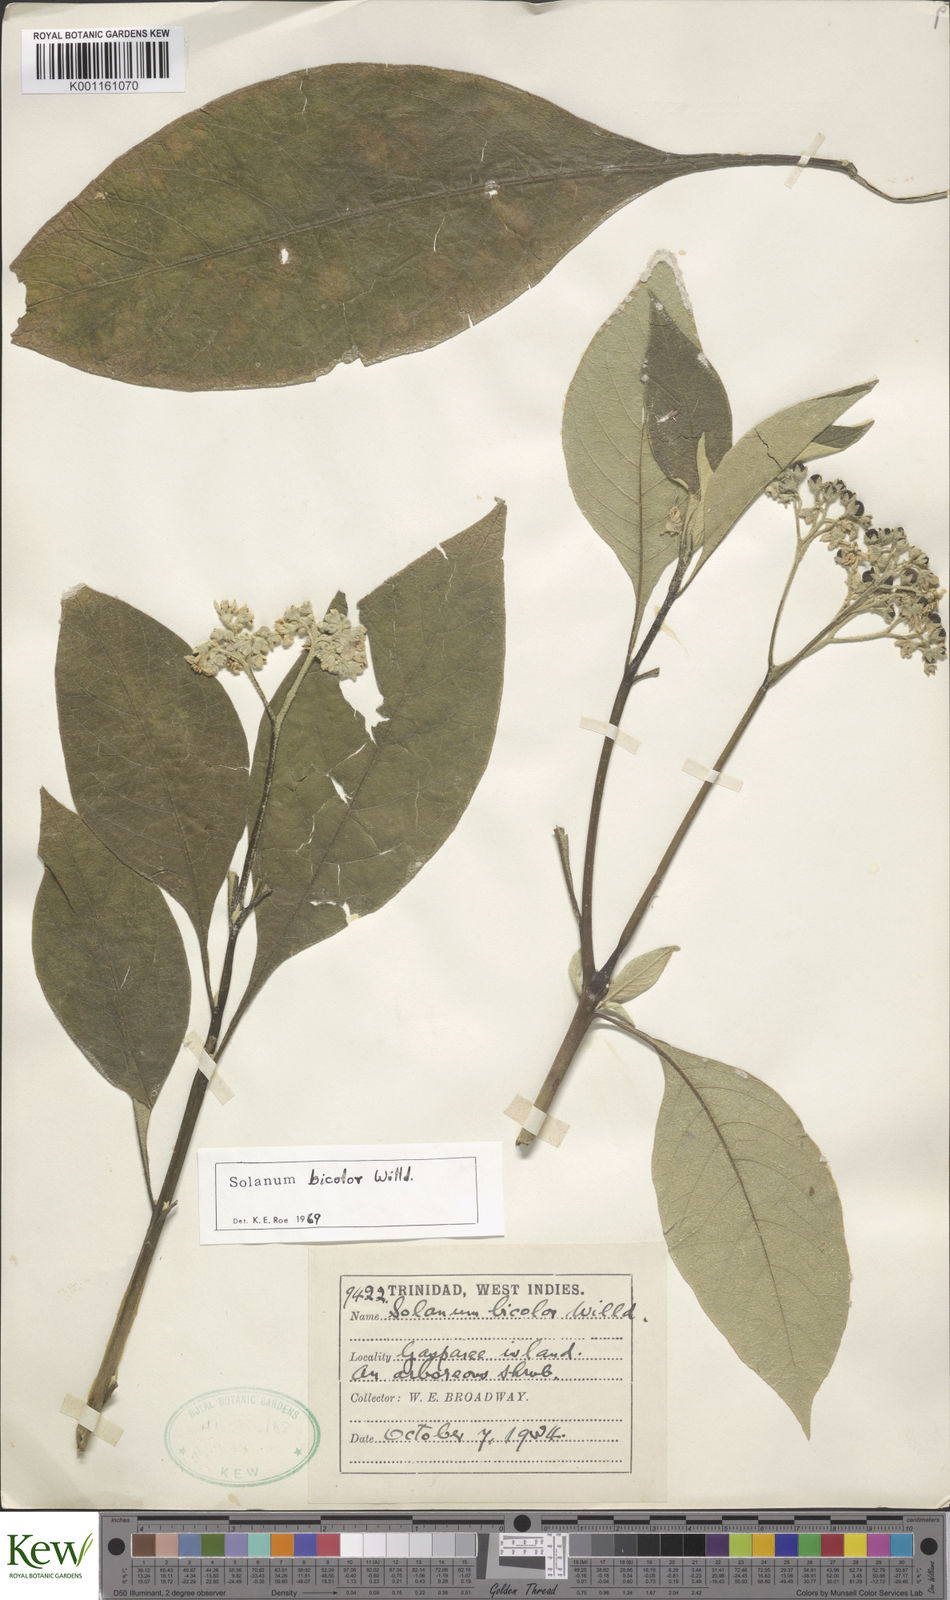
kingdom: Plantae
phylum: Tracheophyta
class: Magnoliopsida
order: Solanales
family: Solanaceae
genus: Solanum
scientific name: Solanum bicolor
